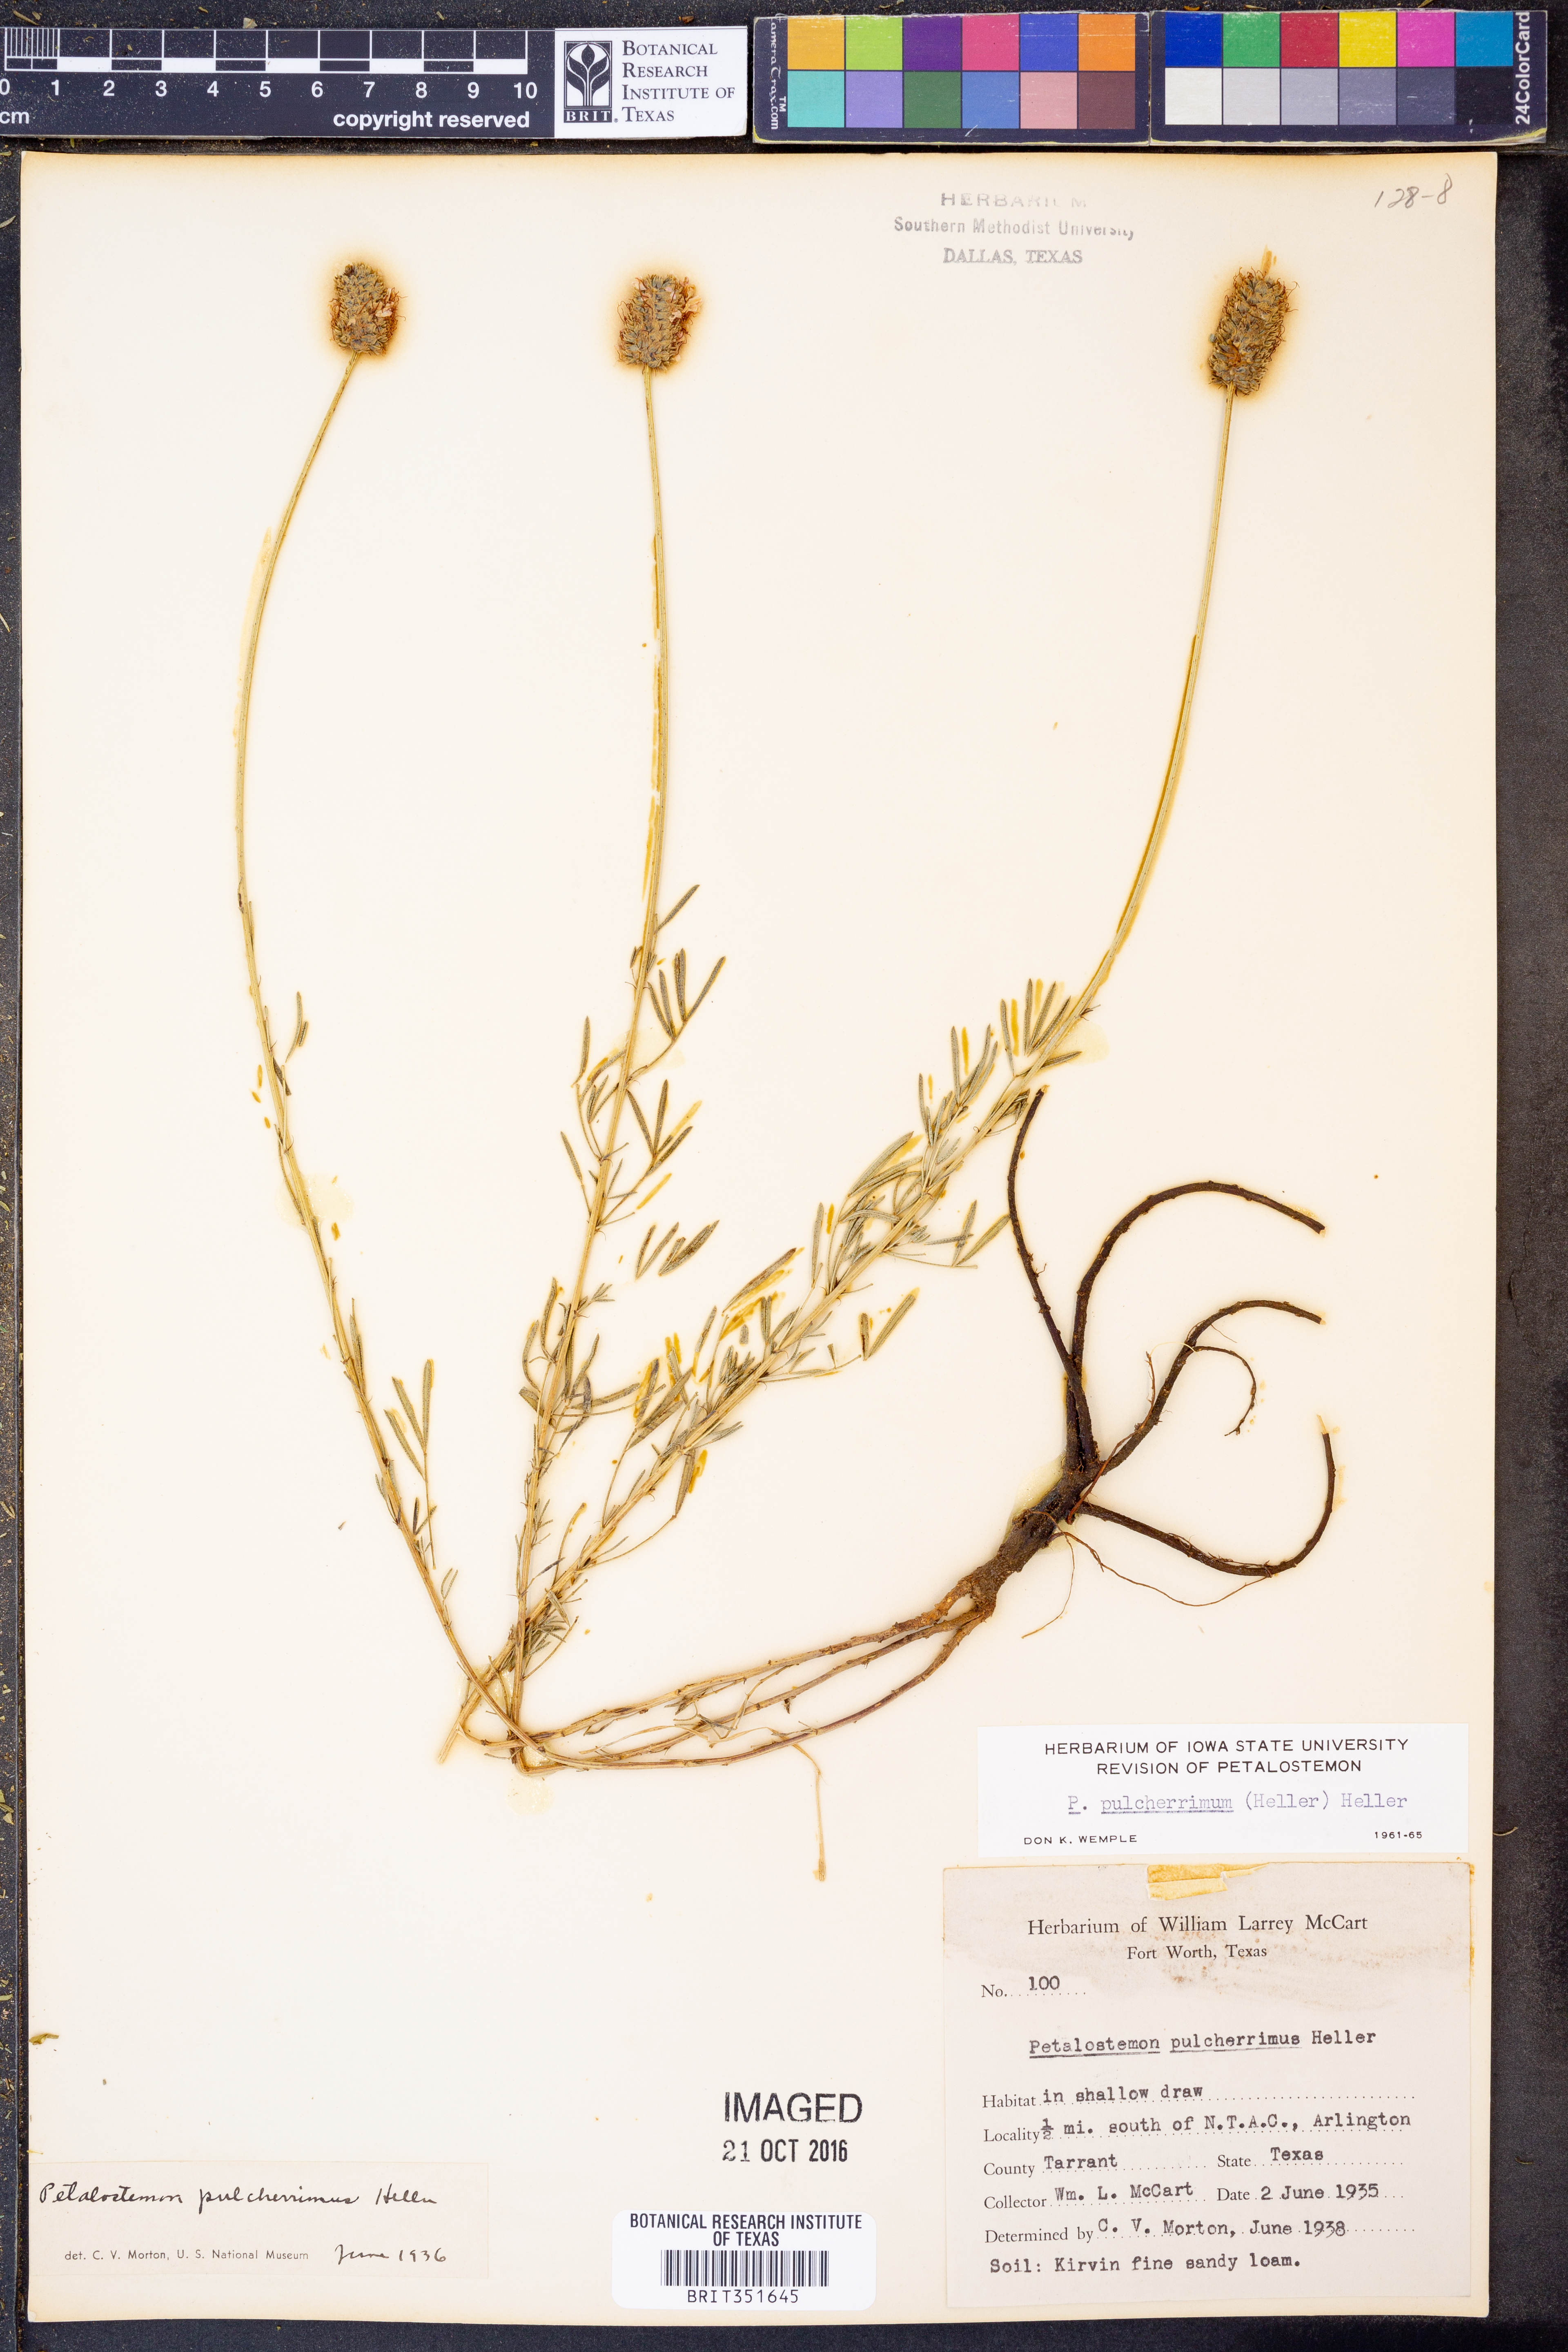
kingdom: Plantae
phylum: Tracheophyta
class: Magnoliopsida
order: Fabales
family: Fabaceae
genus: Dalea
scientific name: Dalea compacta
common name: Compact prairie-clover
